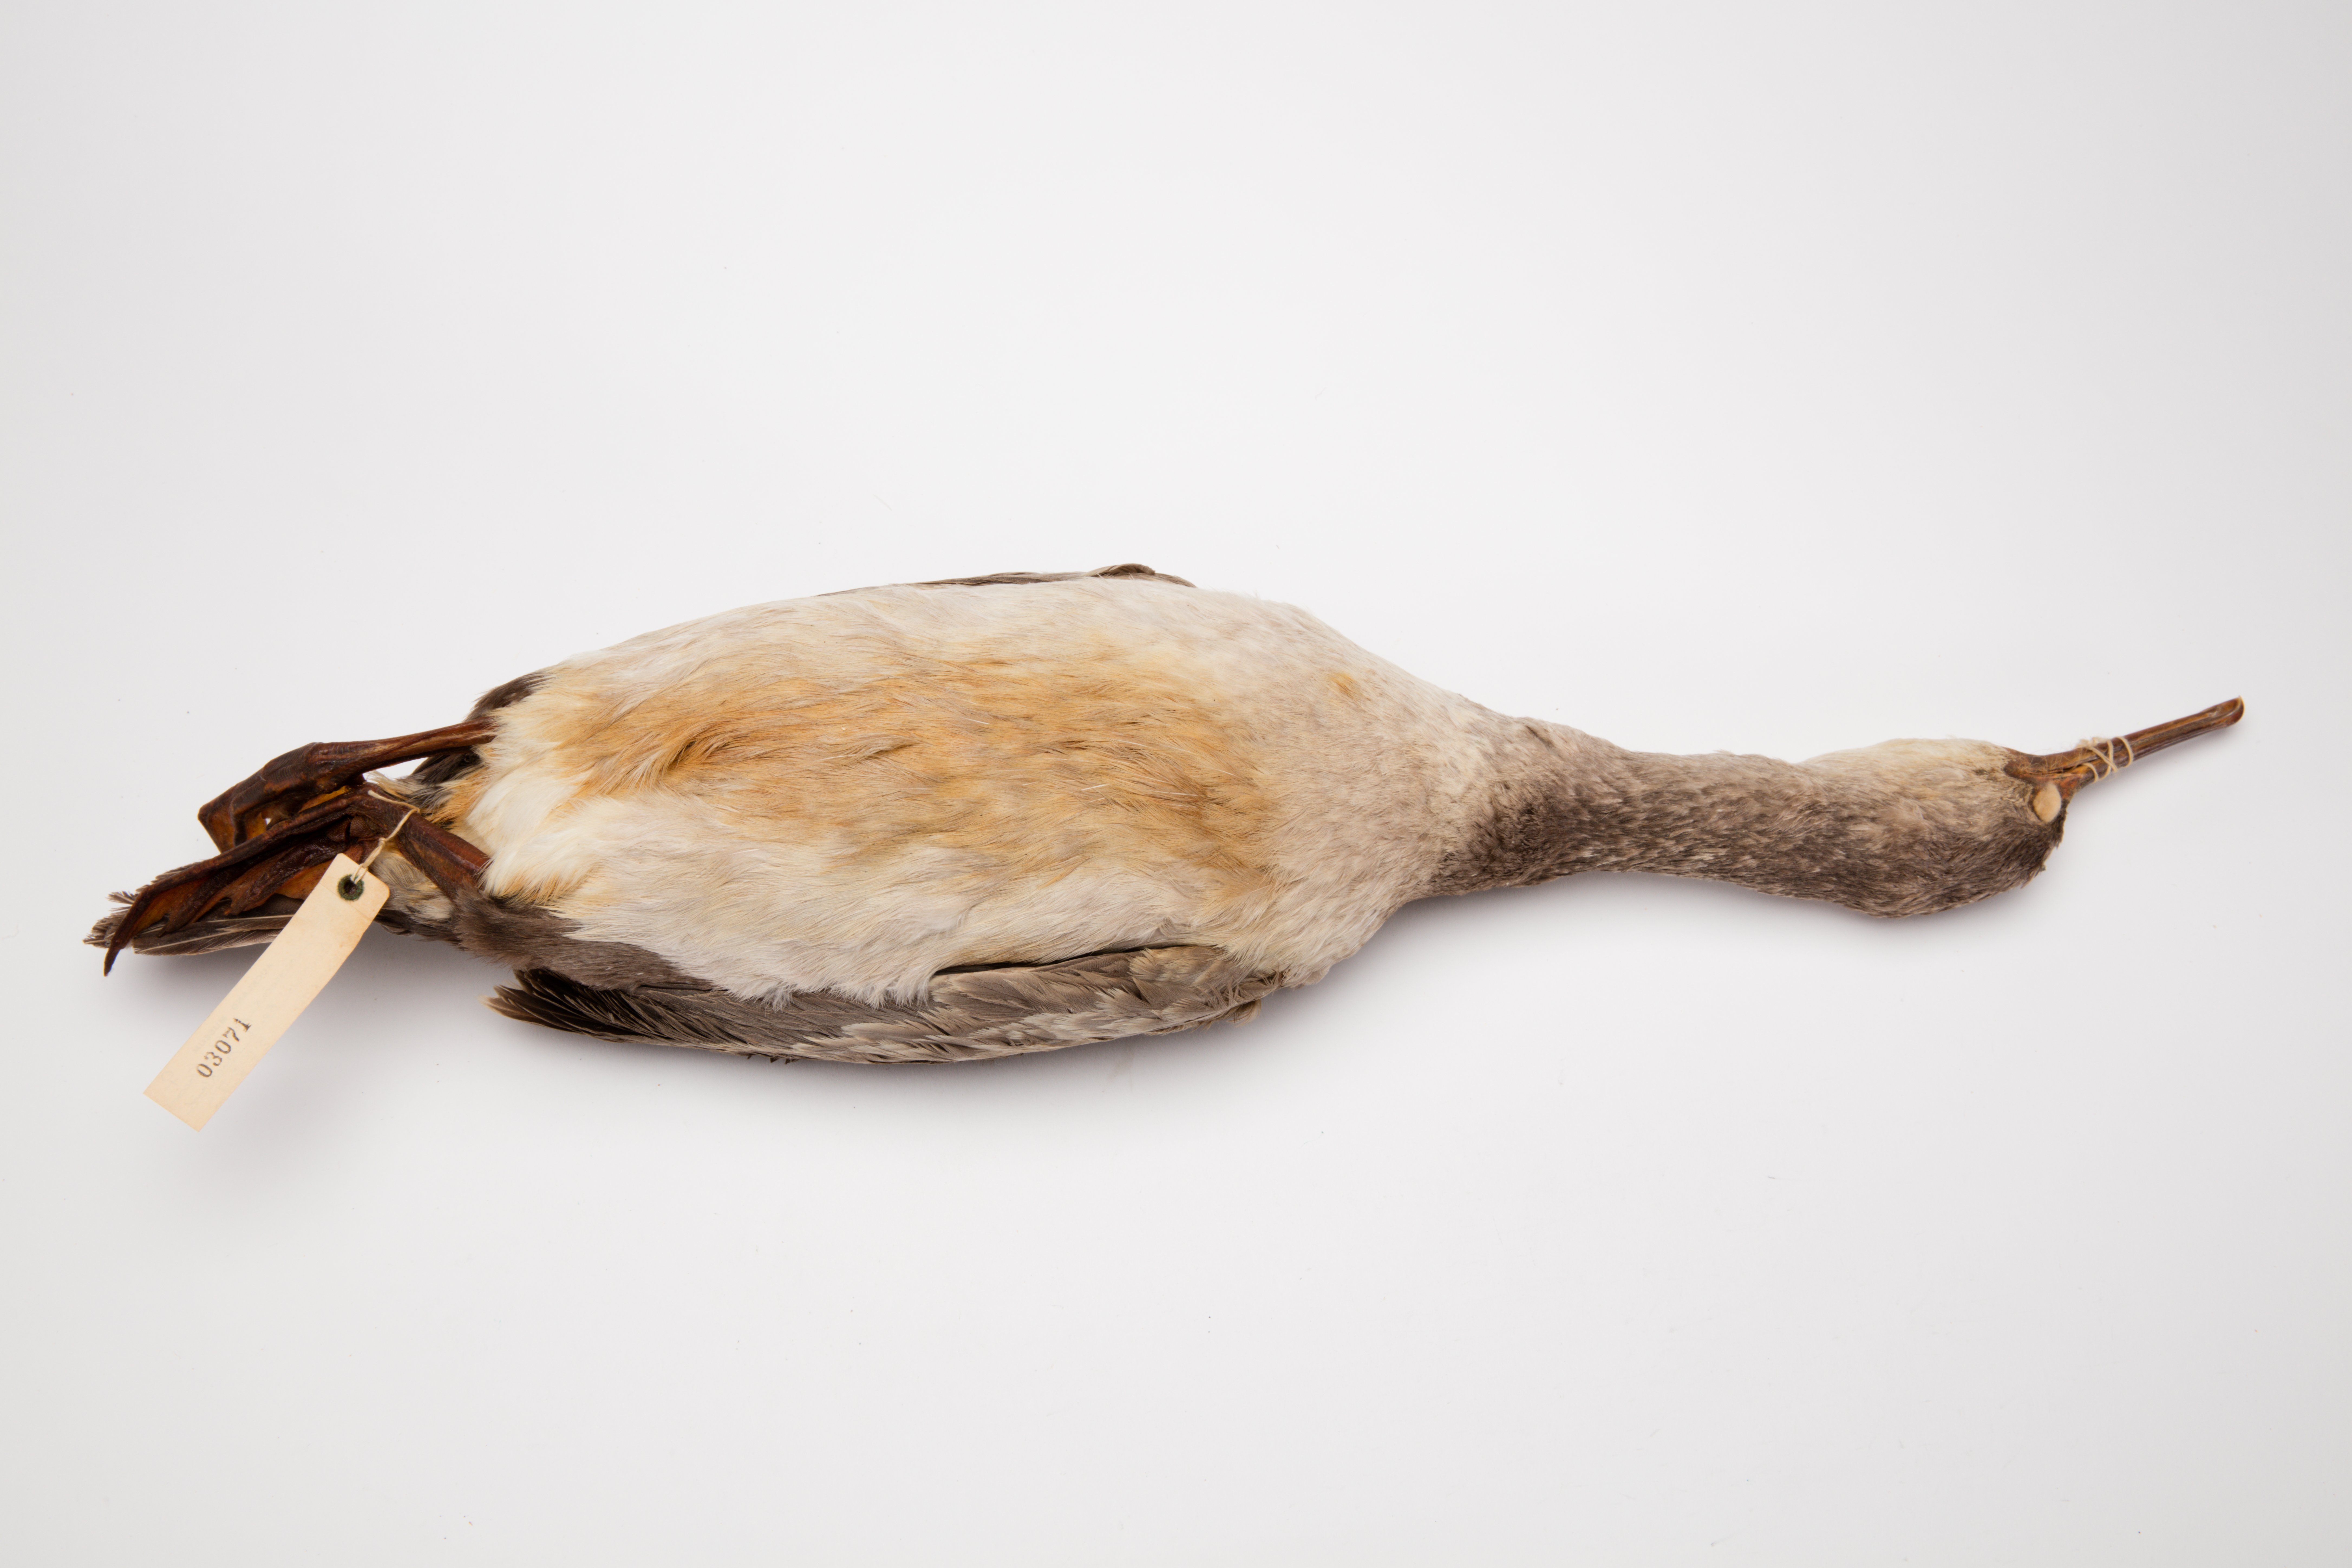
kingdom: Animalia
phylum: Chordata
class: Aves
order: Suliformes
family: Phalacrocoracidae
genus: Phalacrocorax
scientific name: Phalacrocorax punctatus
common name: Spotted shag
